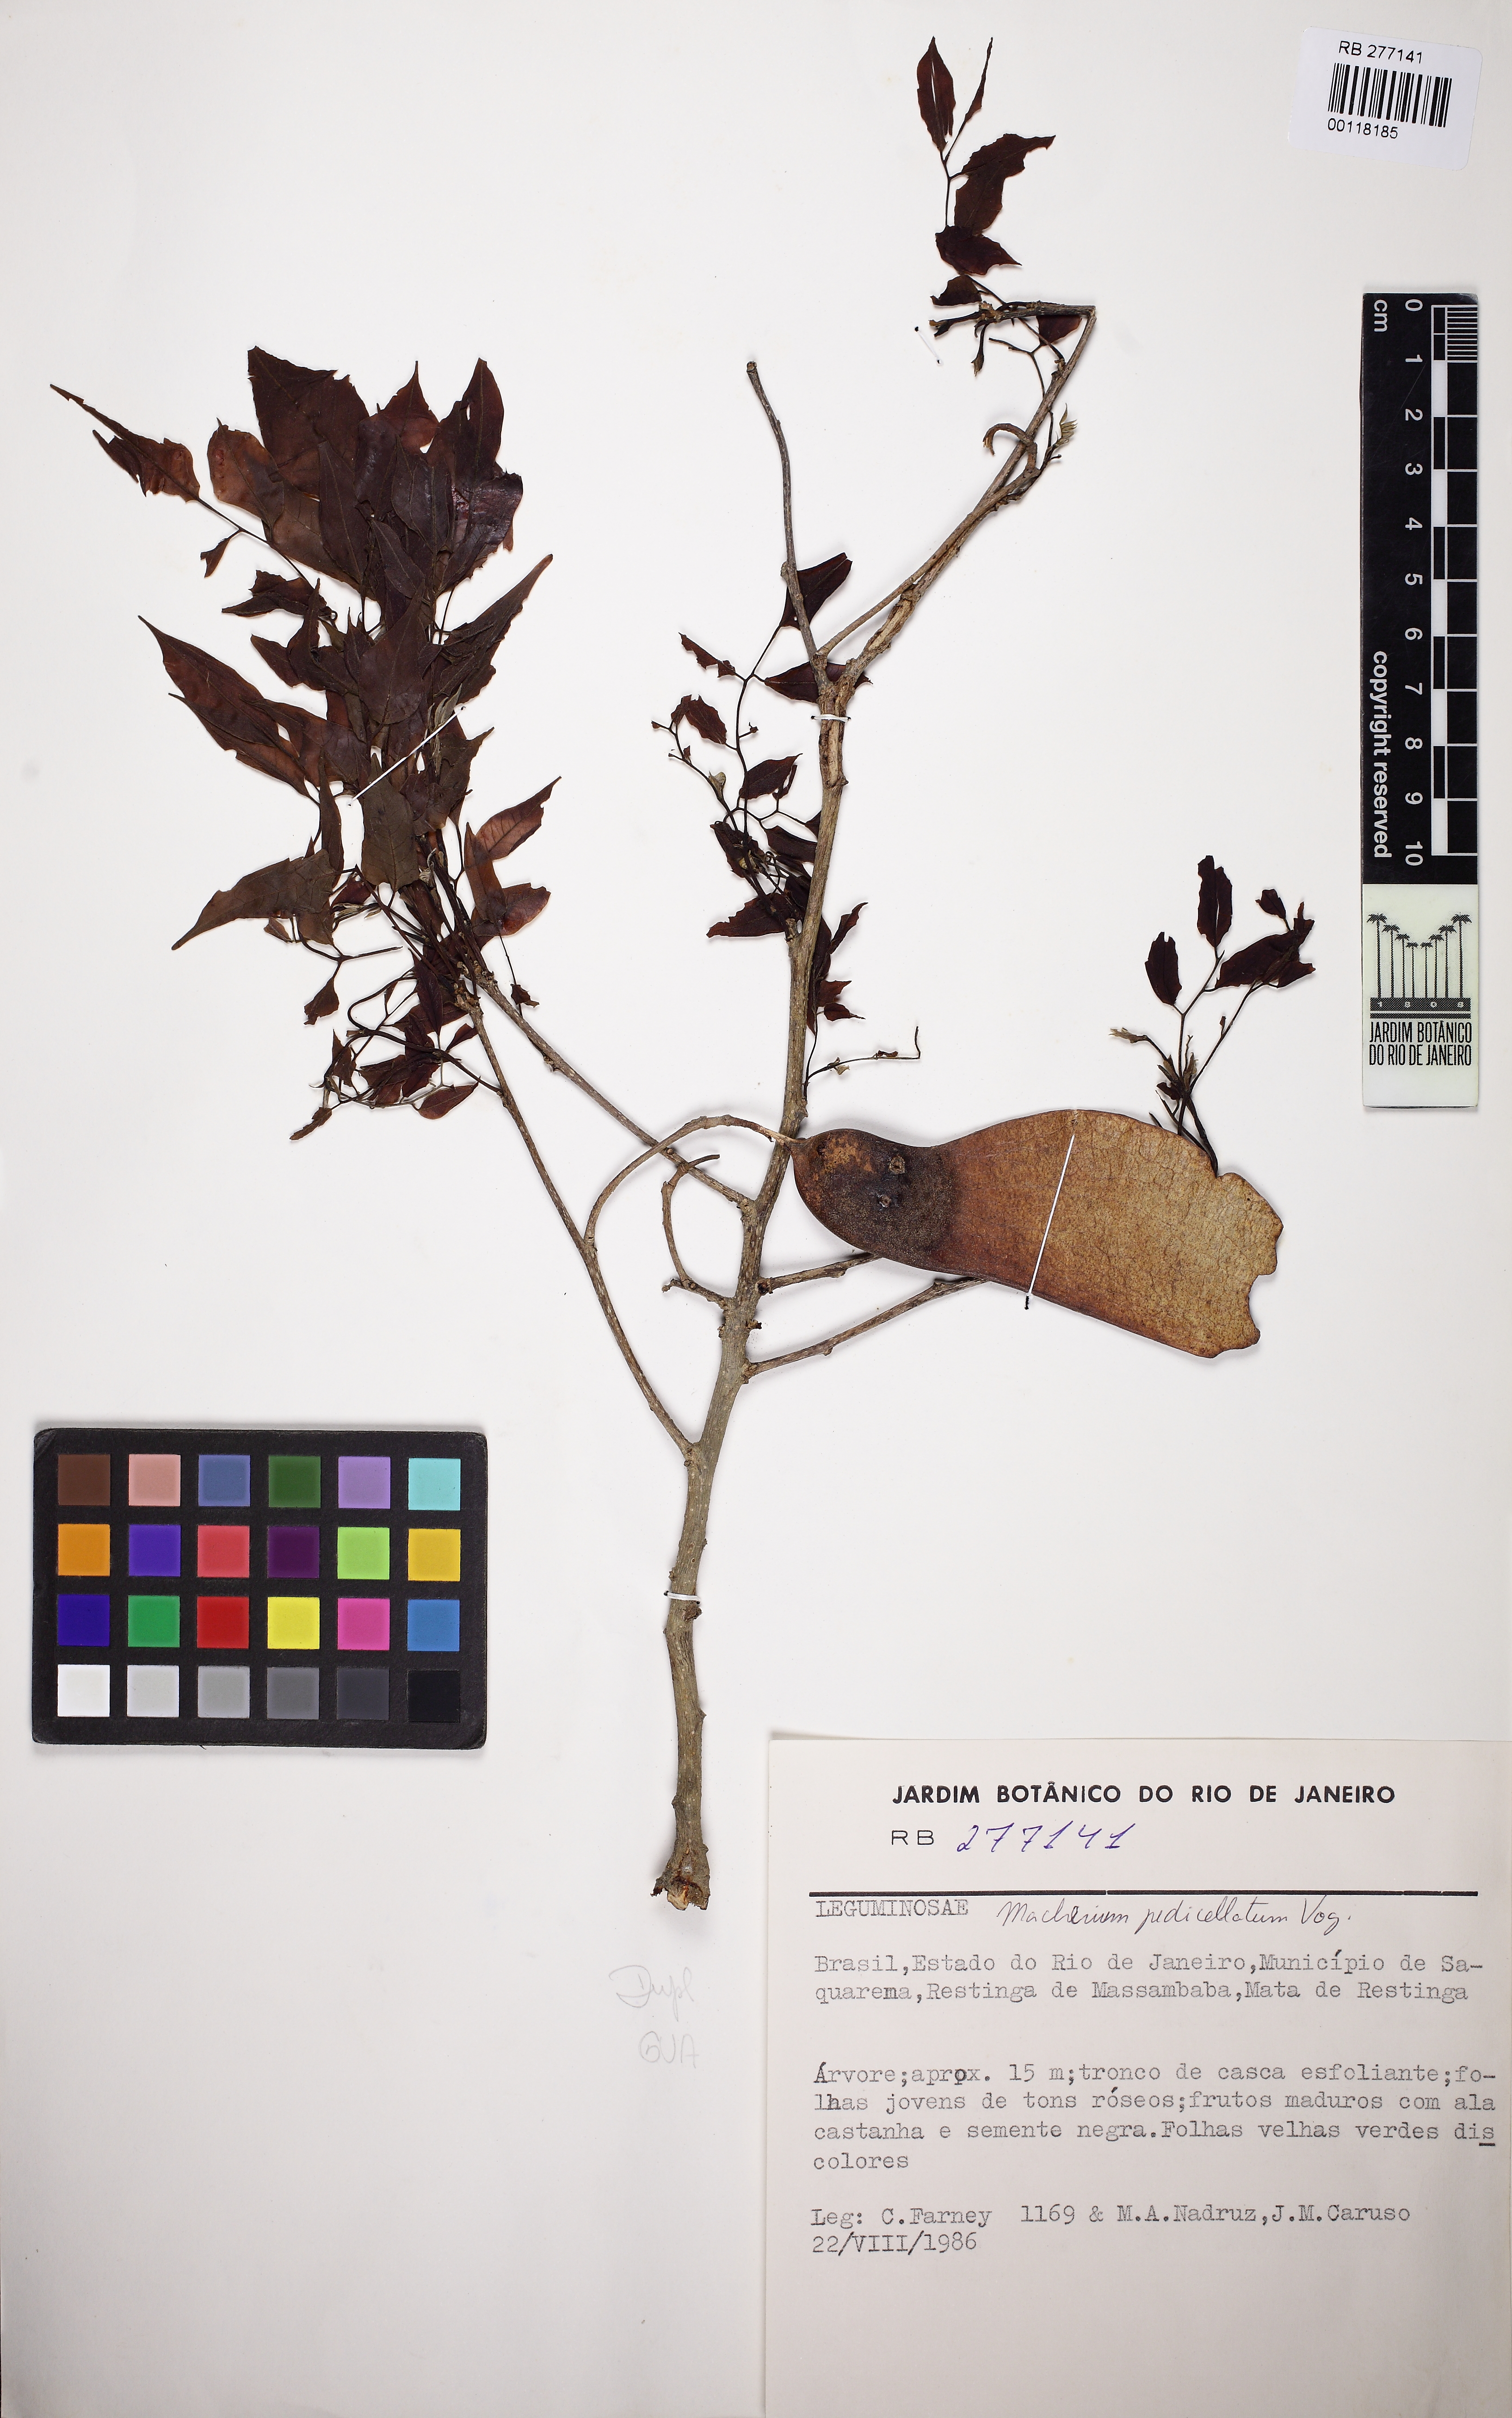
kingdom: Plantae
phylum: Tracheophyta
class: Magnoliopsida
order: Fabales
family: Fabaceae
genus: Machaerium
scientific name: Machaerium pedicellatum
